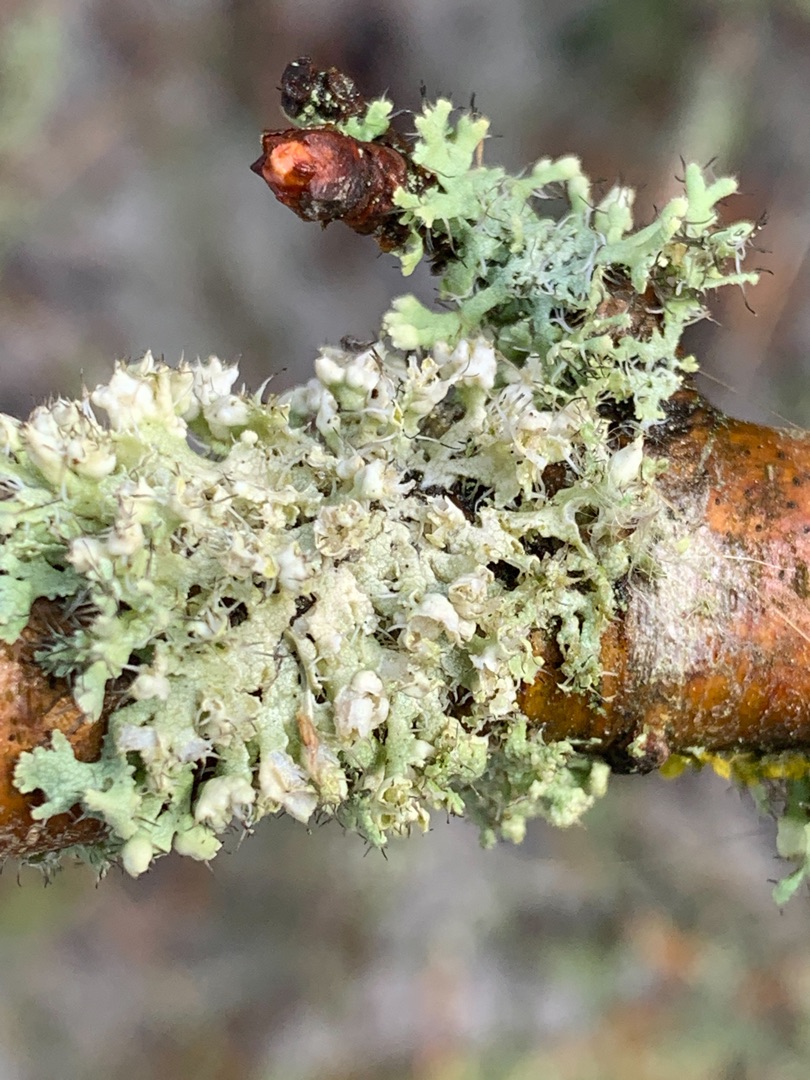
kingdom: Fungi
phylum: Ascomycota
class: Lecanoromycetes
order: Caliciales
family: Physciaceae
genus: Physcia
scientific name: Physcia adscendens
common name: Hætte-rosetlav
